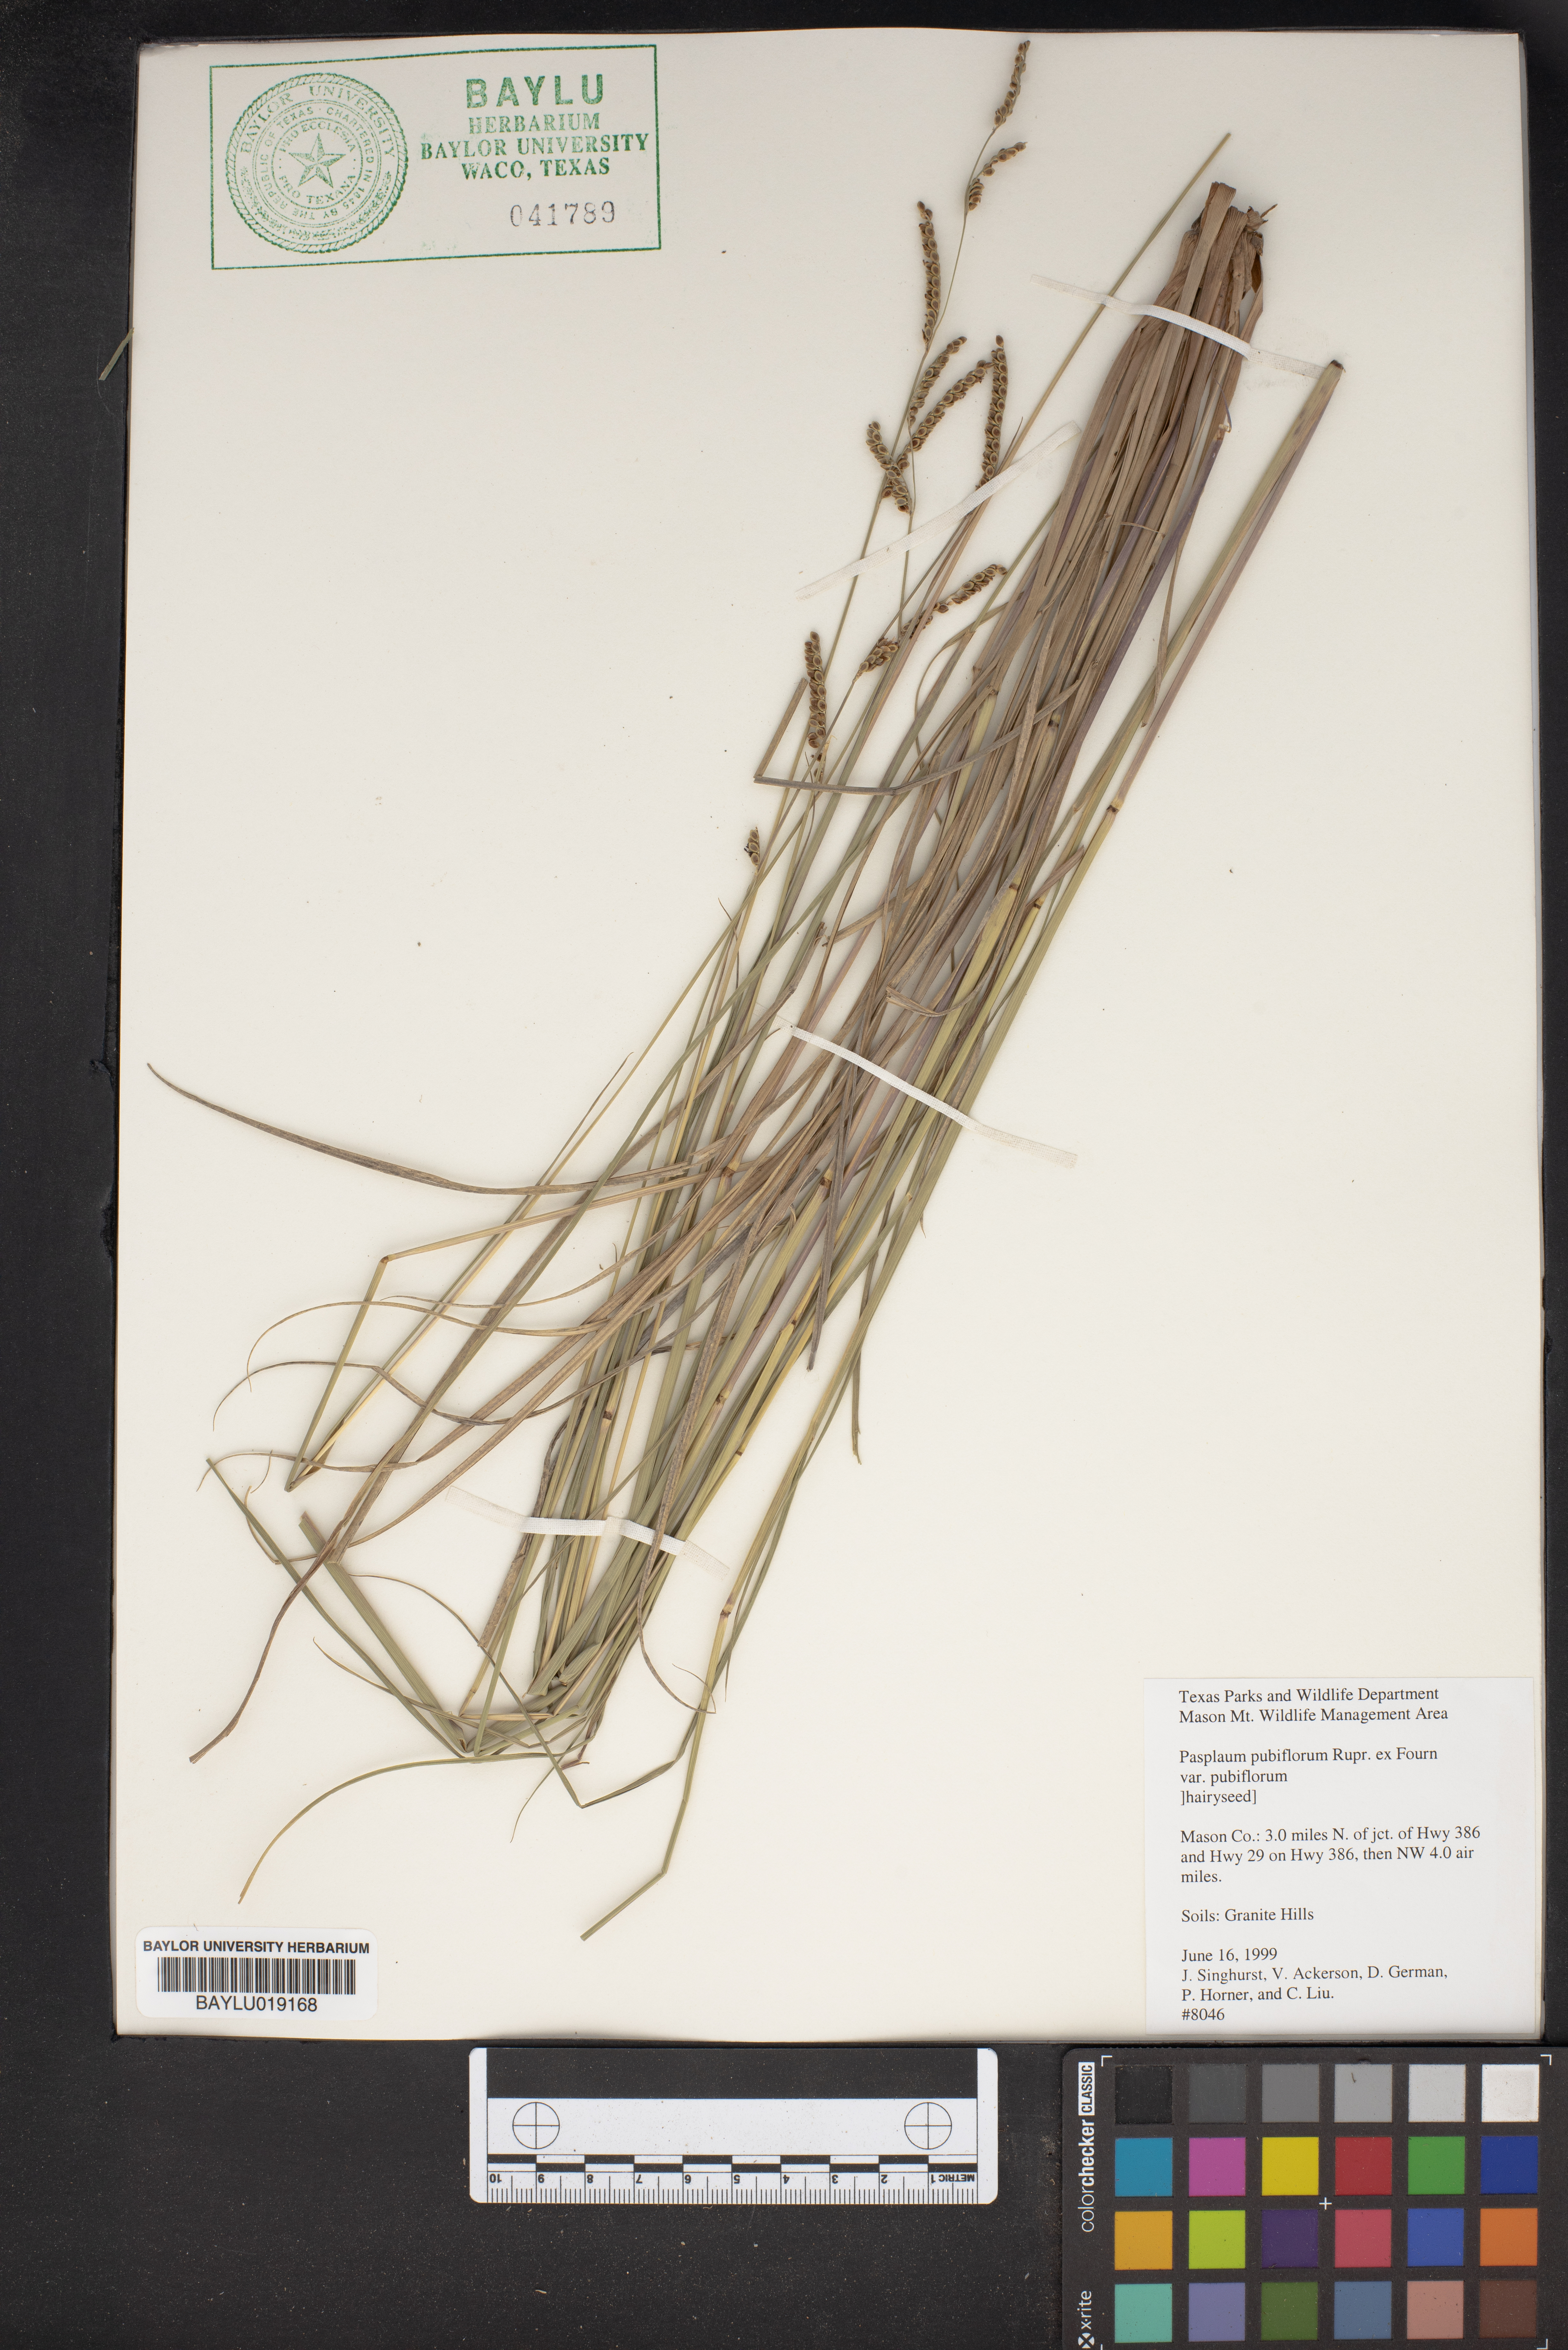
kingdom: Plantae
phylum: Tracheophyta
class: Liliopsida
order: Poales
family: Poaceae
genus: Paspalum
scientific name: Paspalum pubiflorum
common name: Hairy-seed paspalum
